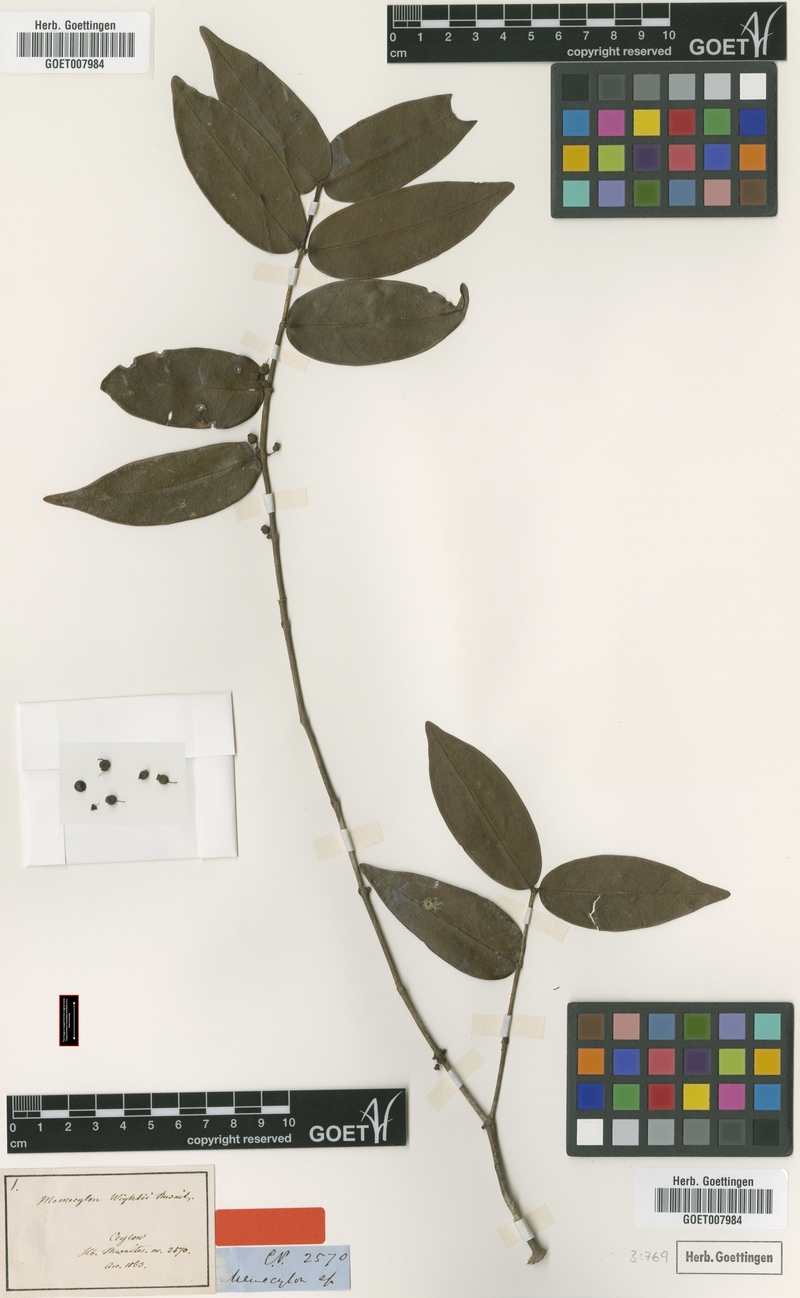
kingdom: Plantae
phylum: Tracheophyta
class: Magnoliopsida
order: Myrtales
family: Melastomataceae
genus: Memecylon
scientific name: Memecylon wightii
